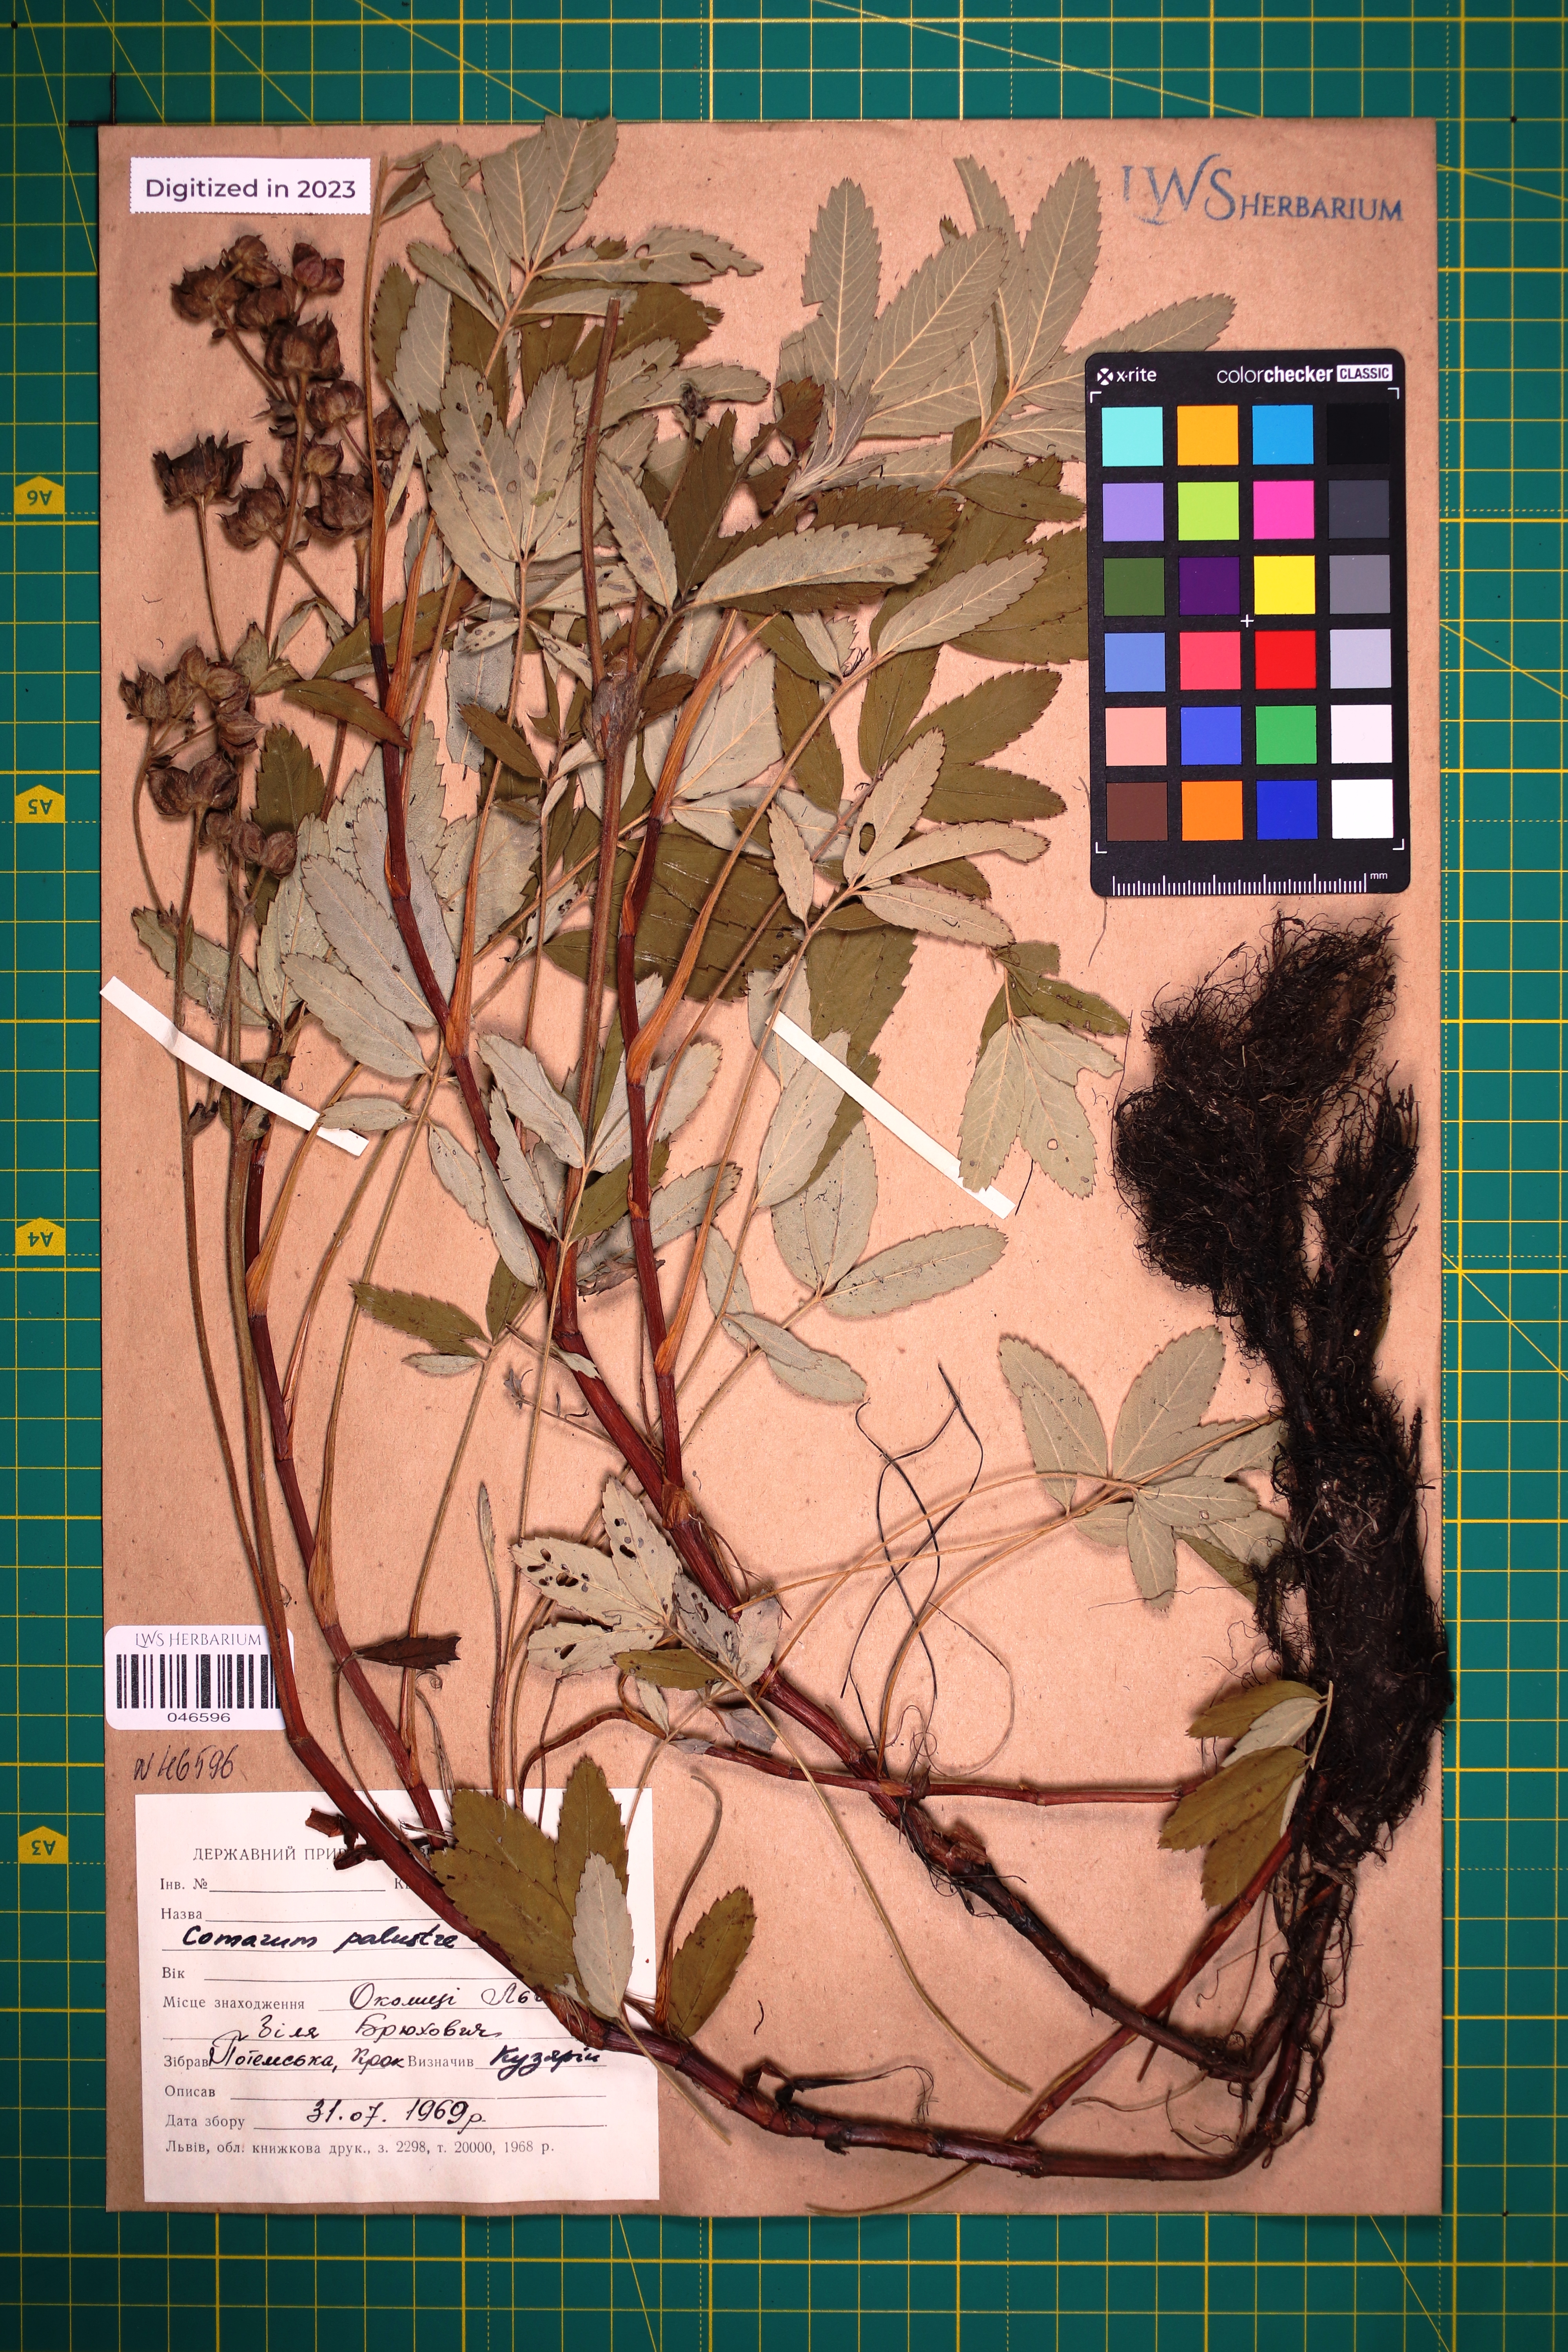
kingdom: Plantae
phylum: Tracheophyta
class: Magnoliopsida
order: Rosales
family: Rosaceae
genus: Comarum
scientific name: Comarum palustre
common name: Marsh cinquefoil
